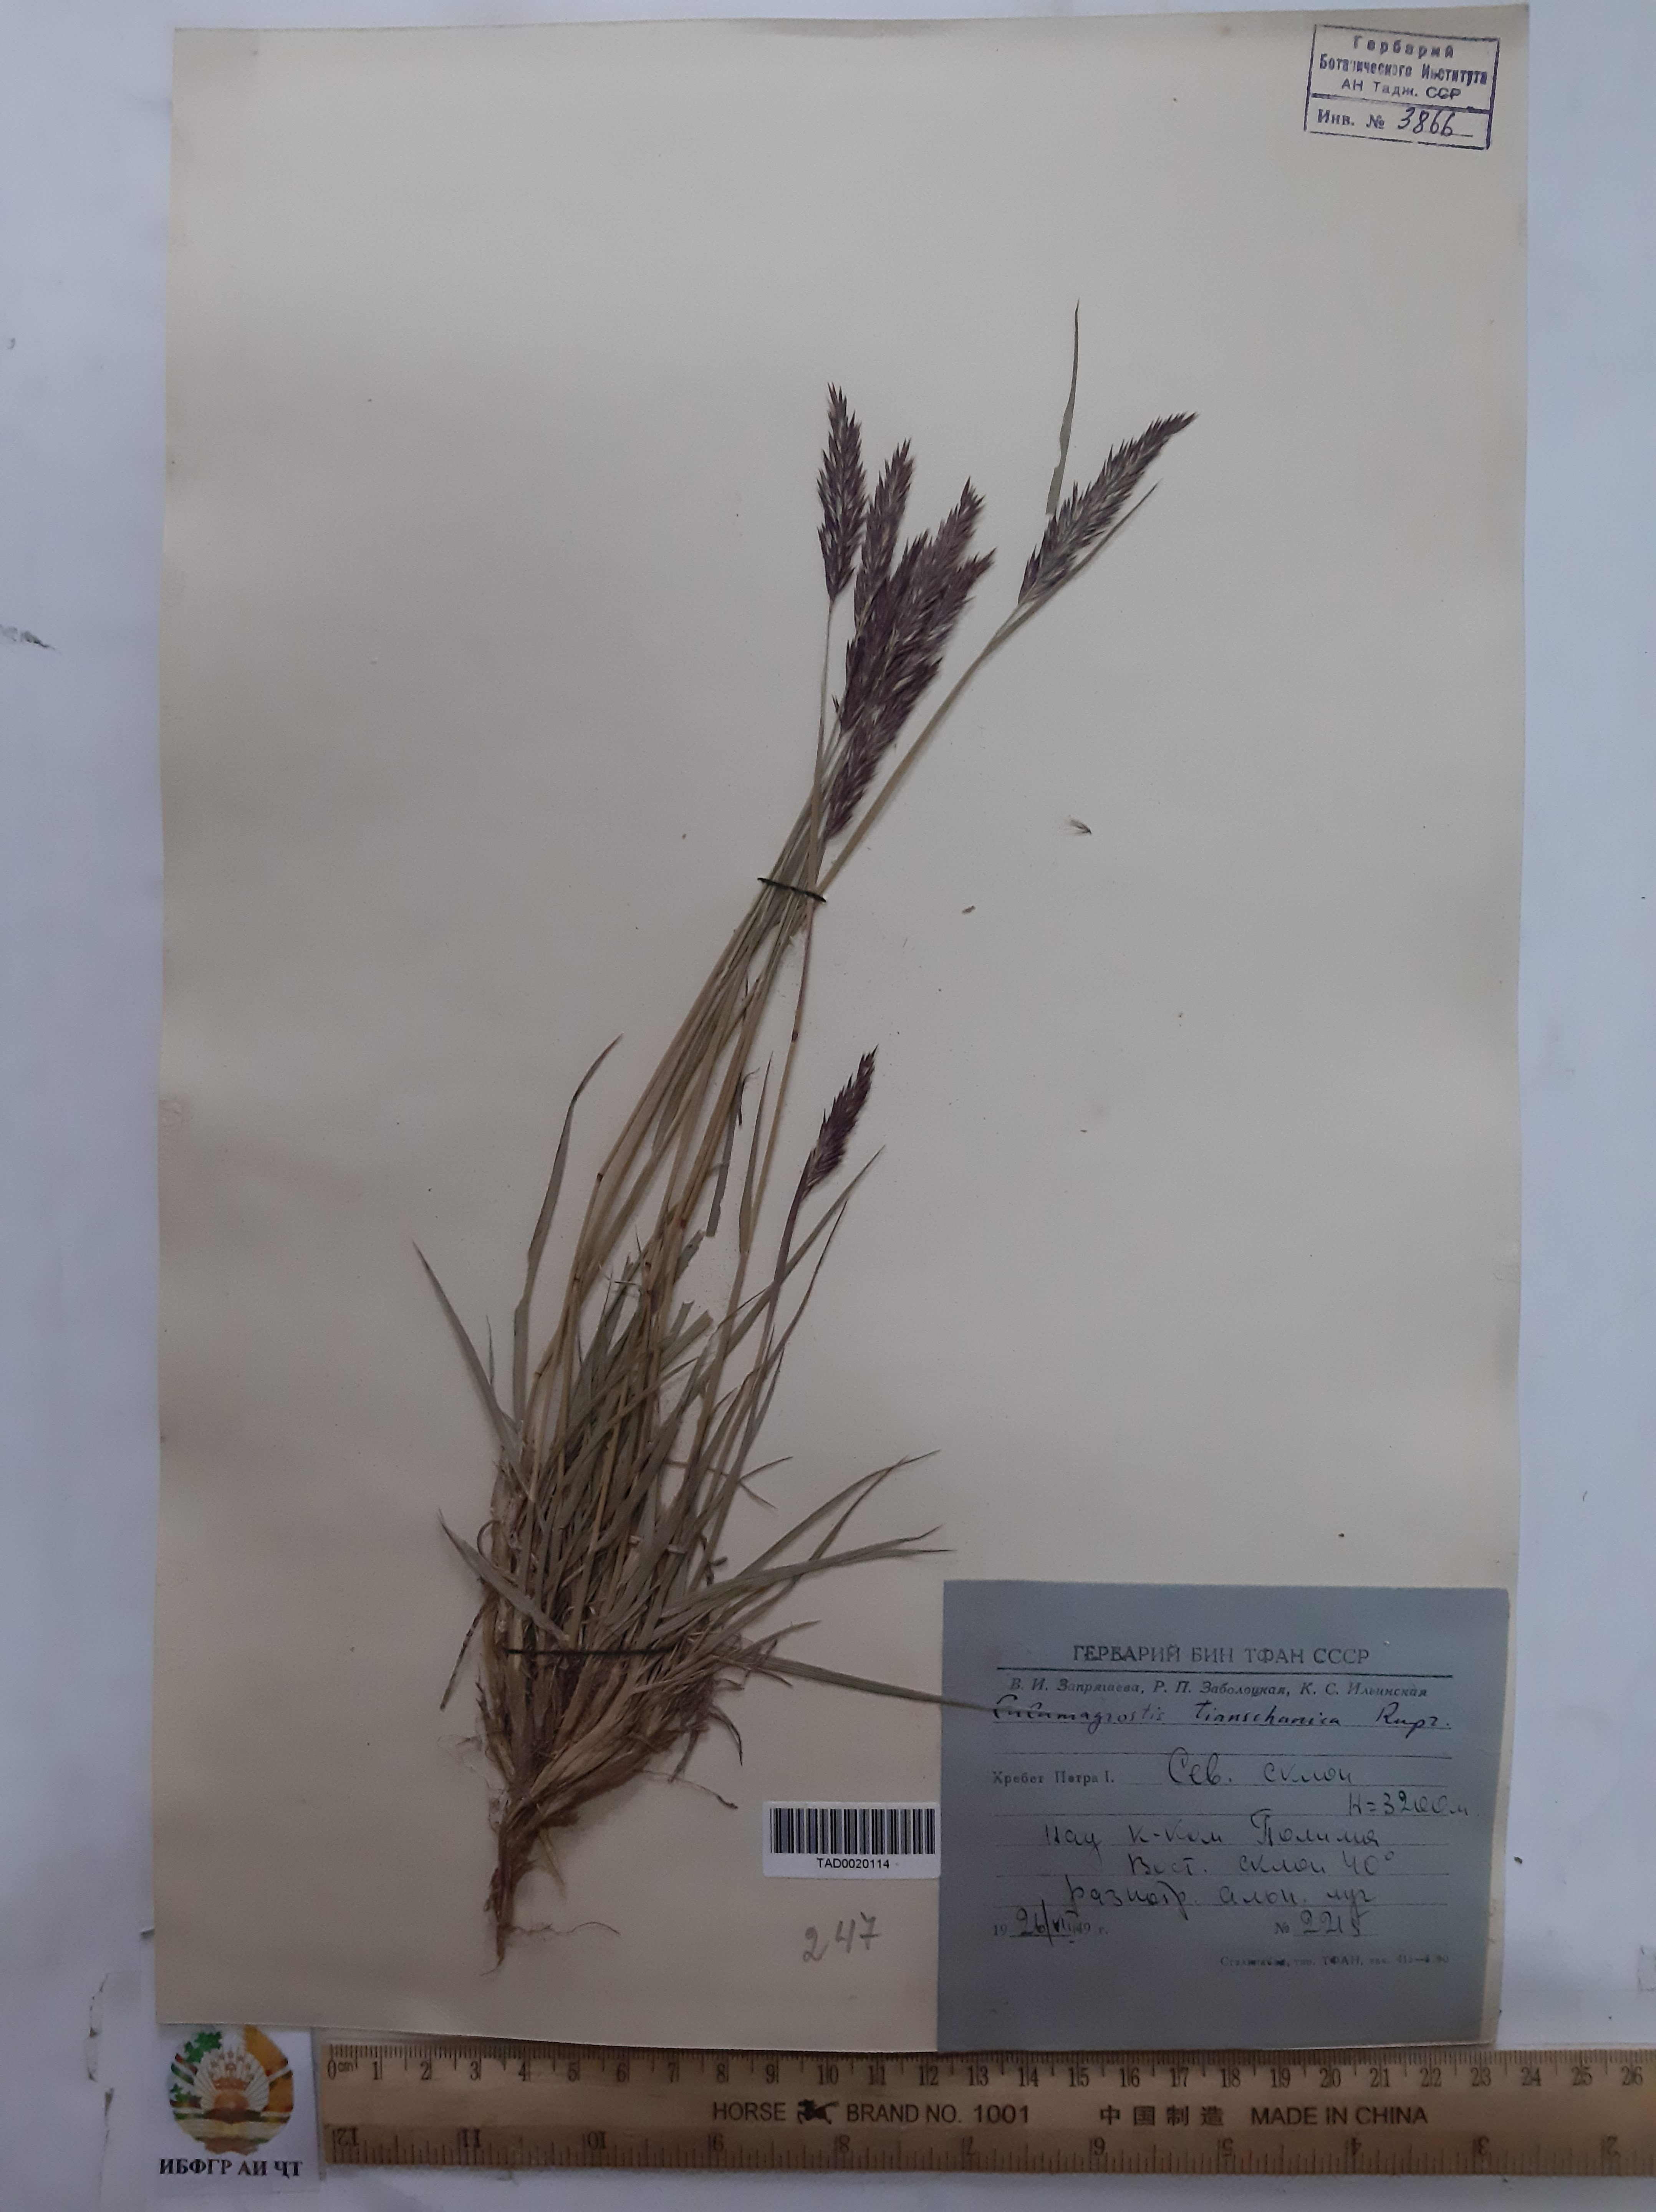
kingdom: Plantae
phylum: Tracheophyta
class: Liliopsida
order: Poales
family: Poaceae
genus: Calamagrostis
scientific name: Calamagrostis tianschanica
